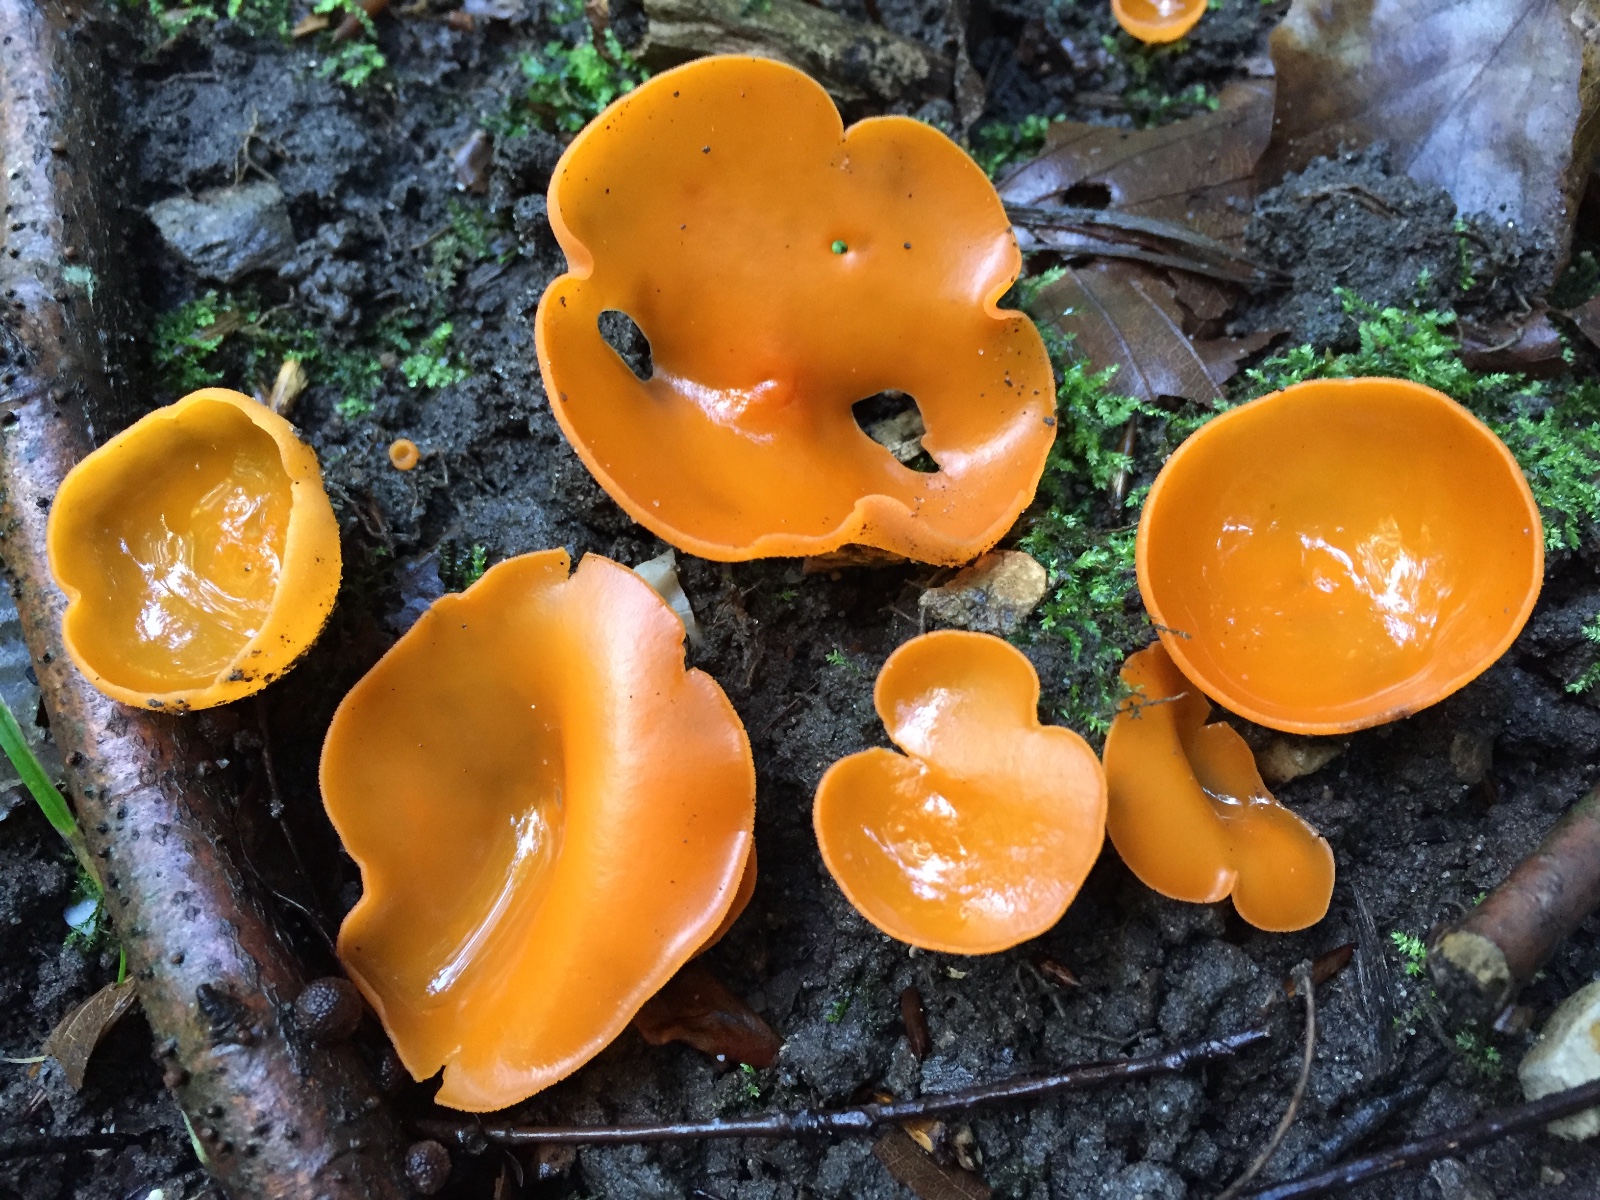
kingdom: Fungi
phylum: Ascomycota
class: Pezizomycetes
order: Pezizales
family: Pyronemataceae
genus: Aleuria
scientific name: Aleuria aurantia
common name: almindelig orangebæger
